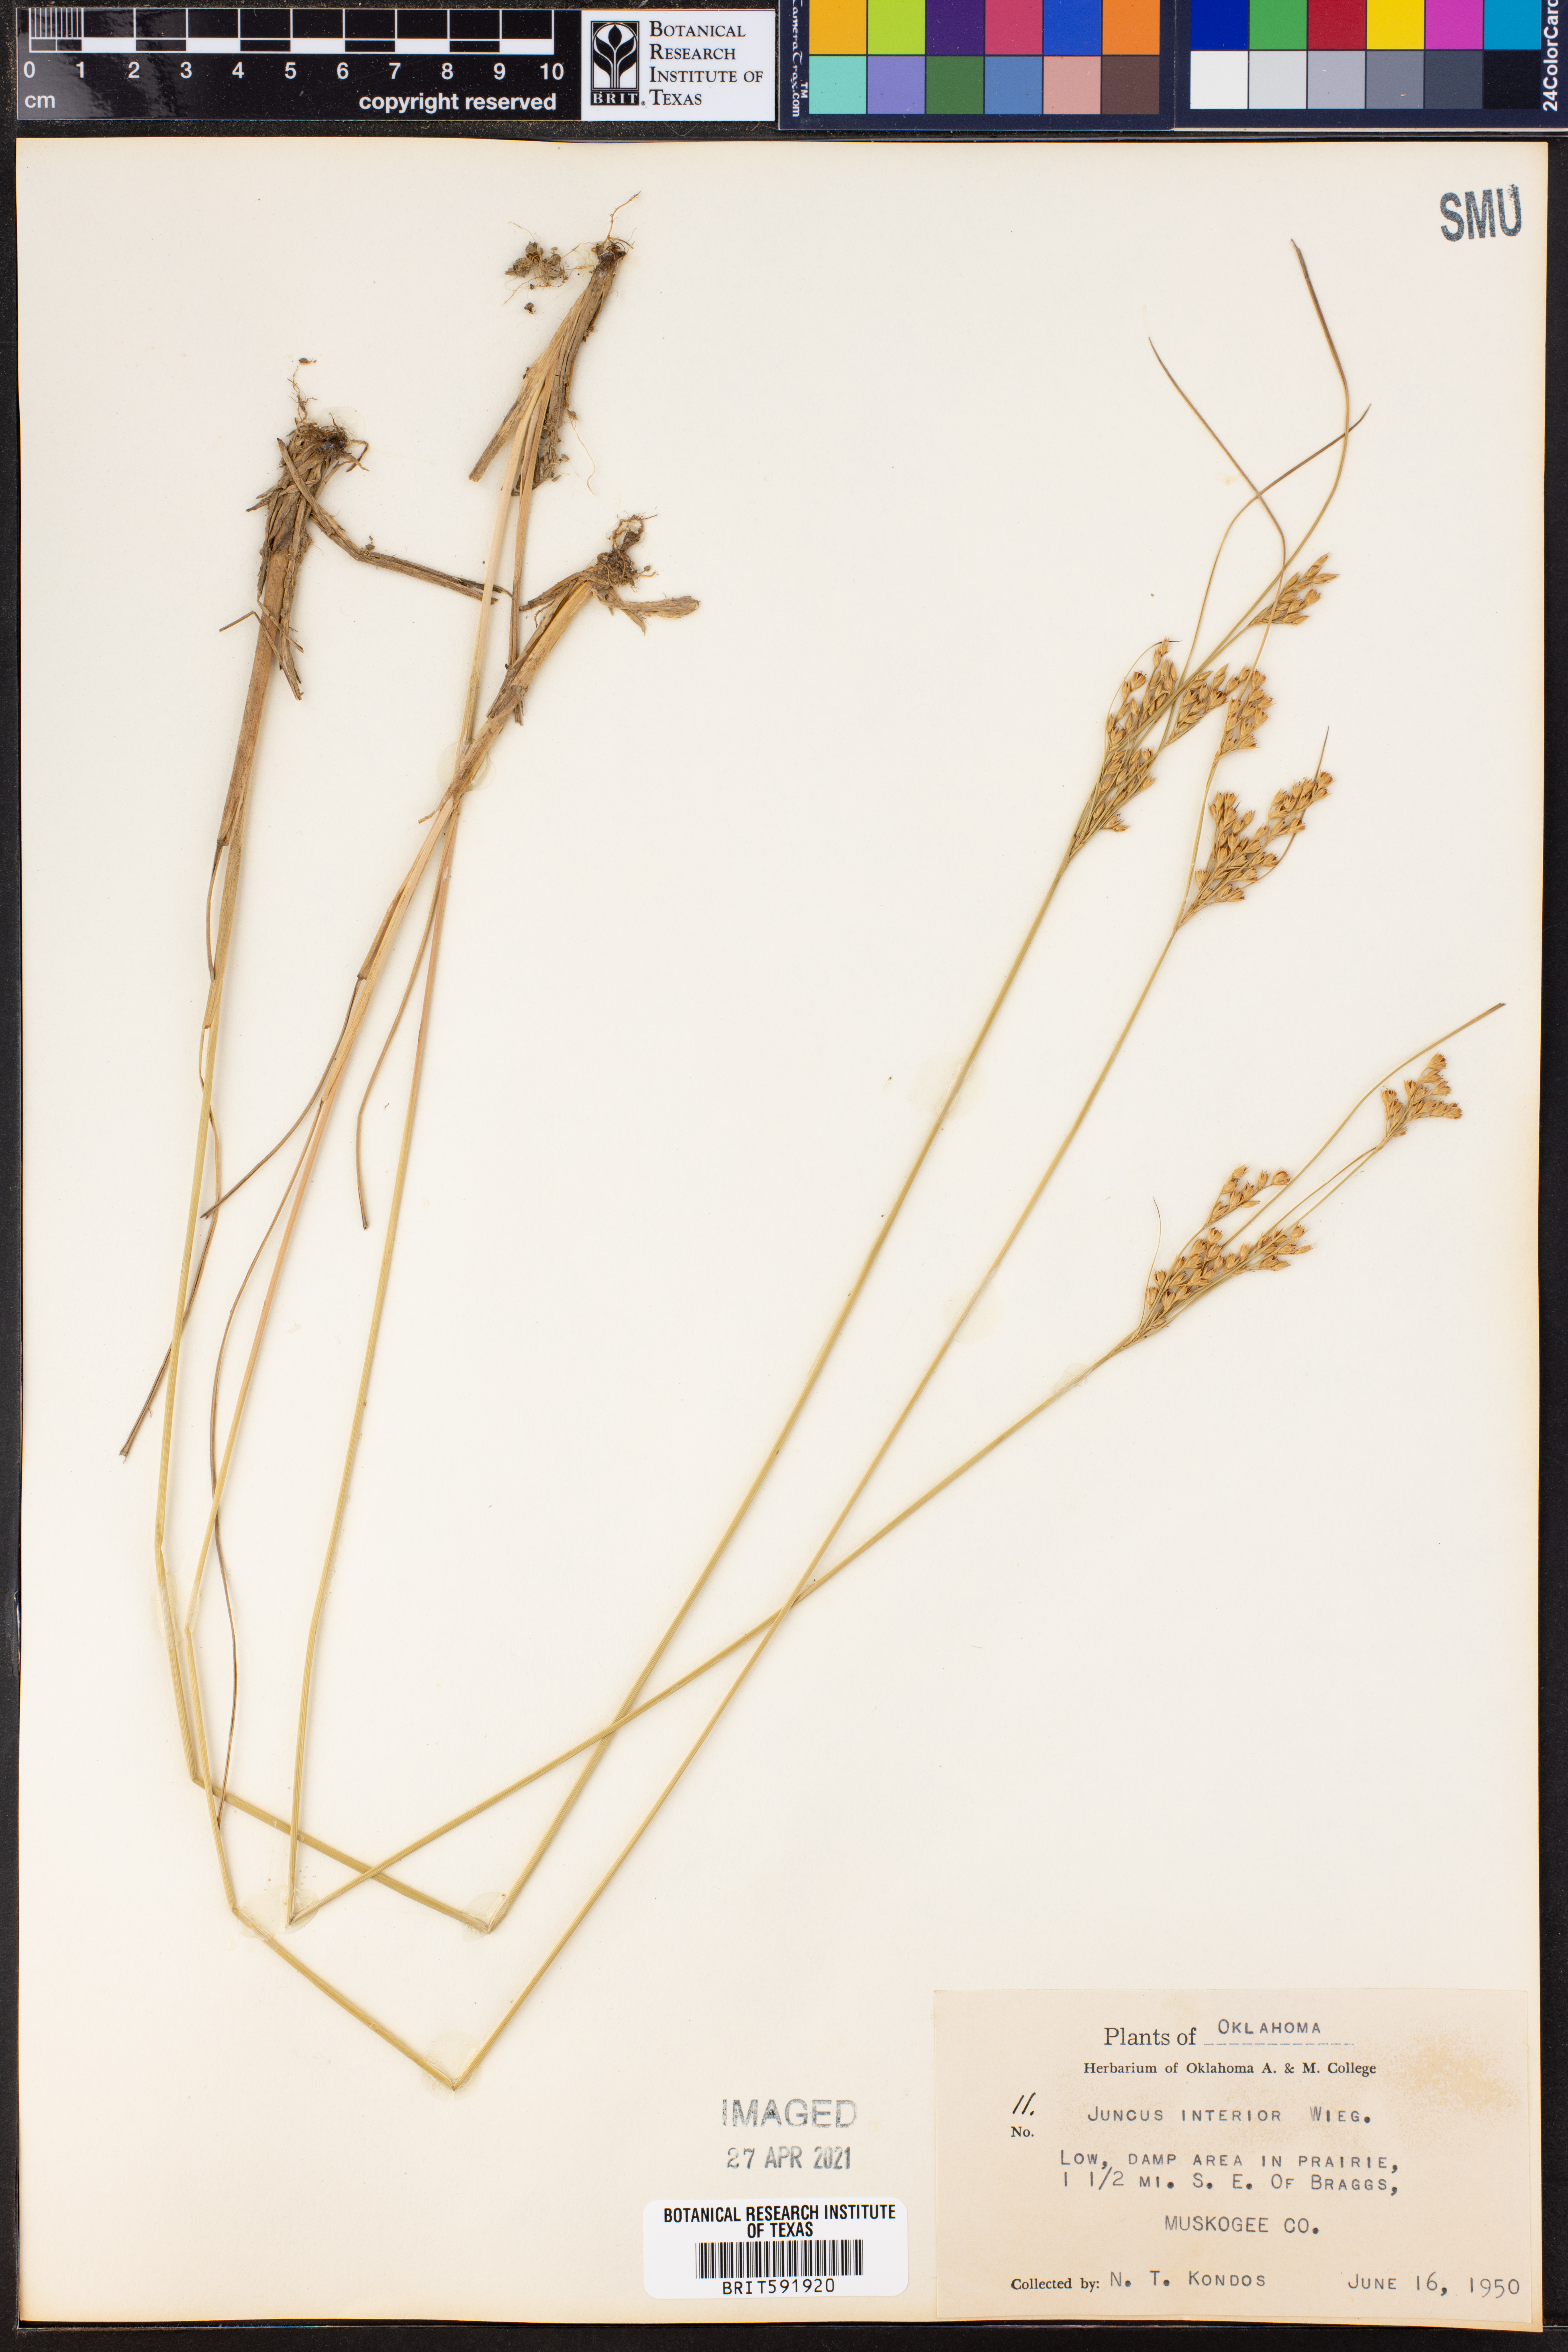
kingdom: Plantae
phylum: Tracheophyta
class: Liliopsida
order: Poales
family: Juncaceae
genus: Juncus
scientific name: Juncus interior
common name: Interior rush
